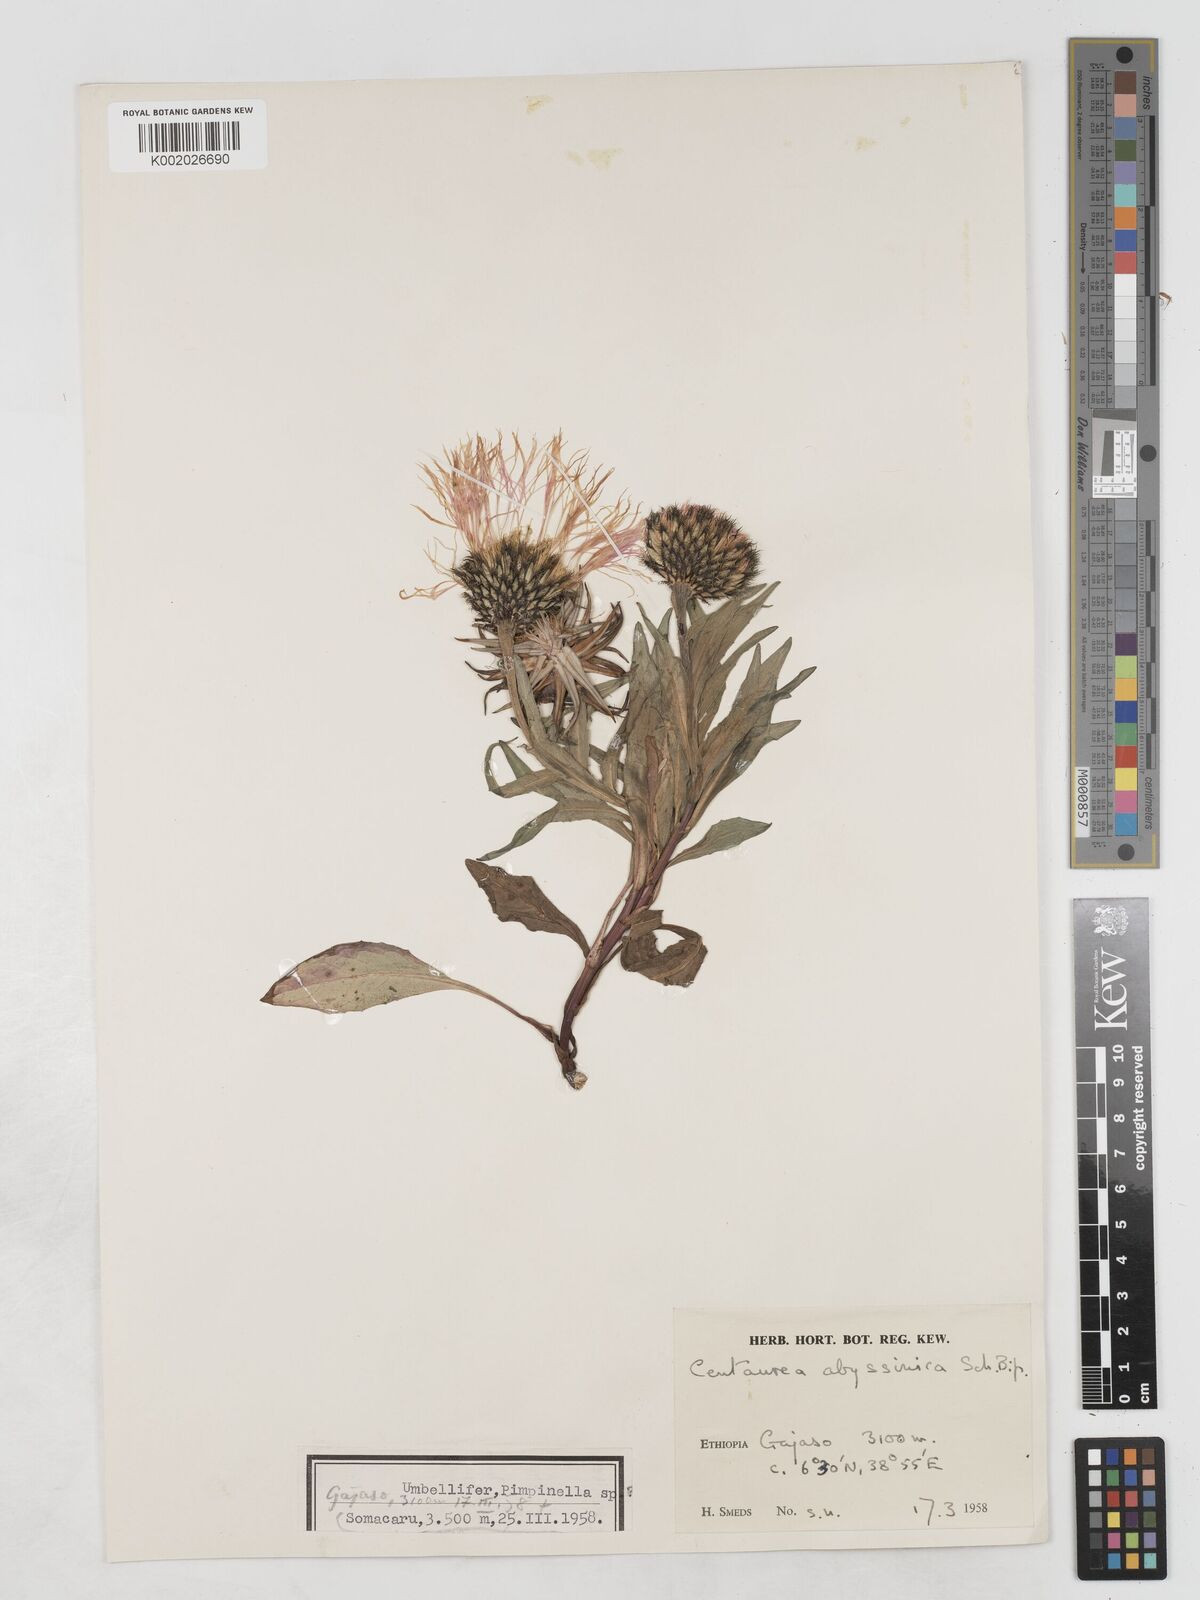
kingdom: Plantae
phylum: Tracheophyta
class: Magnoliopsida
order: Asterales
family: Asteraceae
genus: Plectocephalus
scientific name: Plectocephalus
